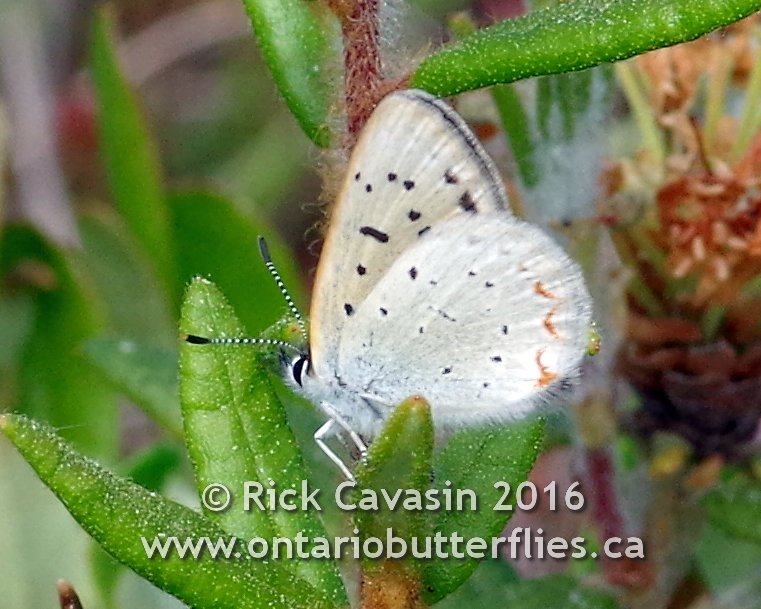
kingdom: Animalia
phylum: Arthropoda
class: Insecta
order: Lepidoptera
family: Sesiidae
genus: Sesia
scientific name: Sesia Lycaena epixanthe
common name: Bog Copper
